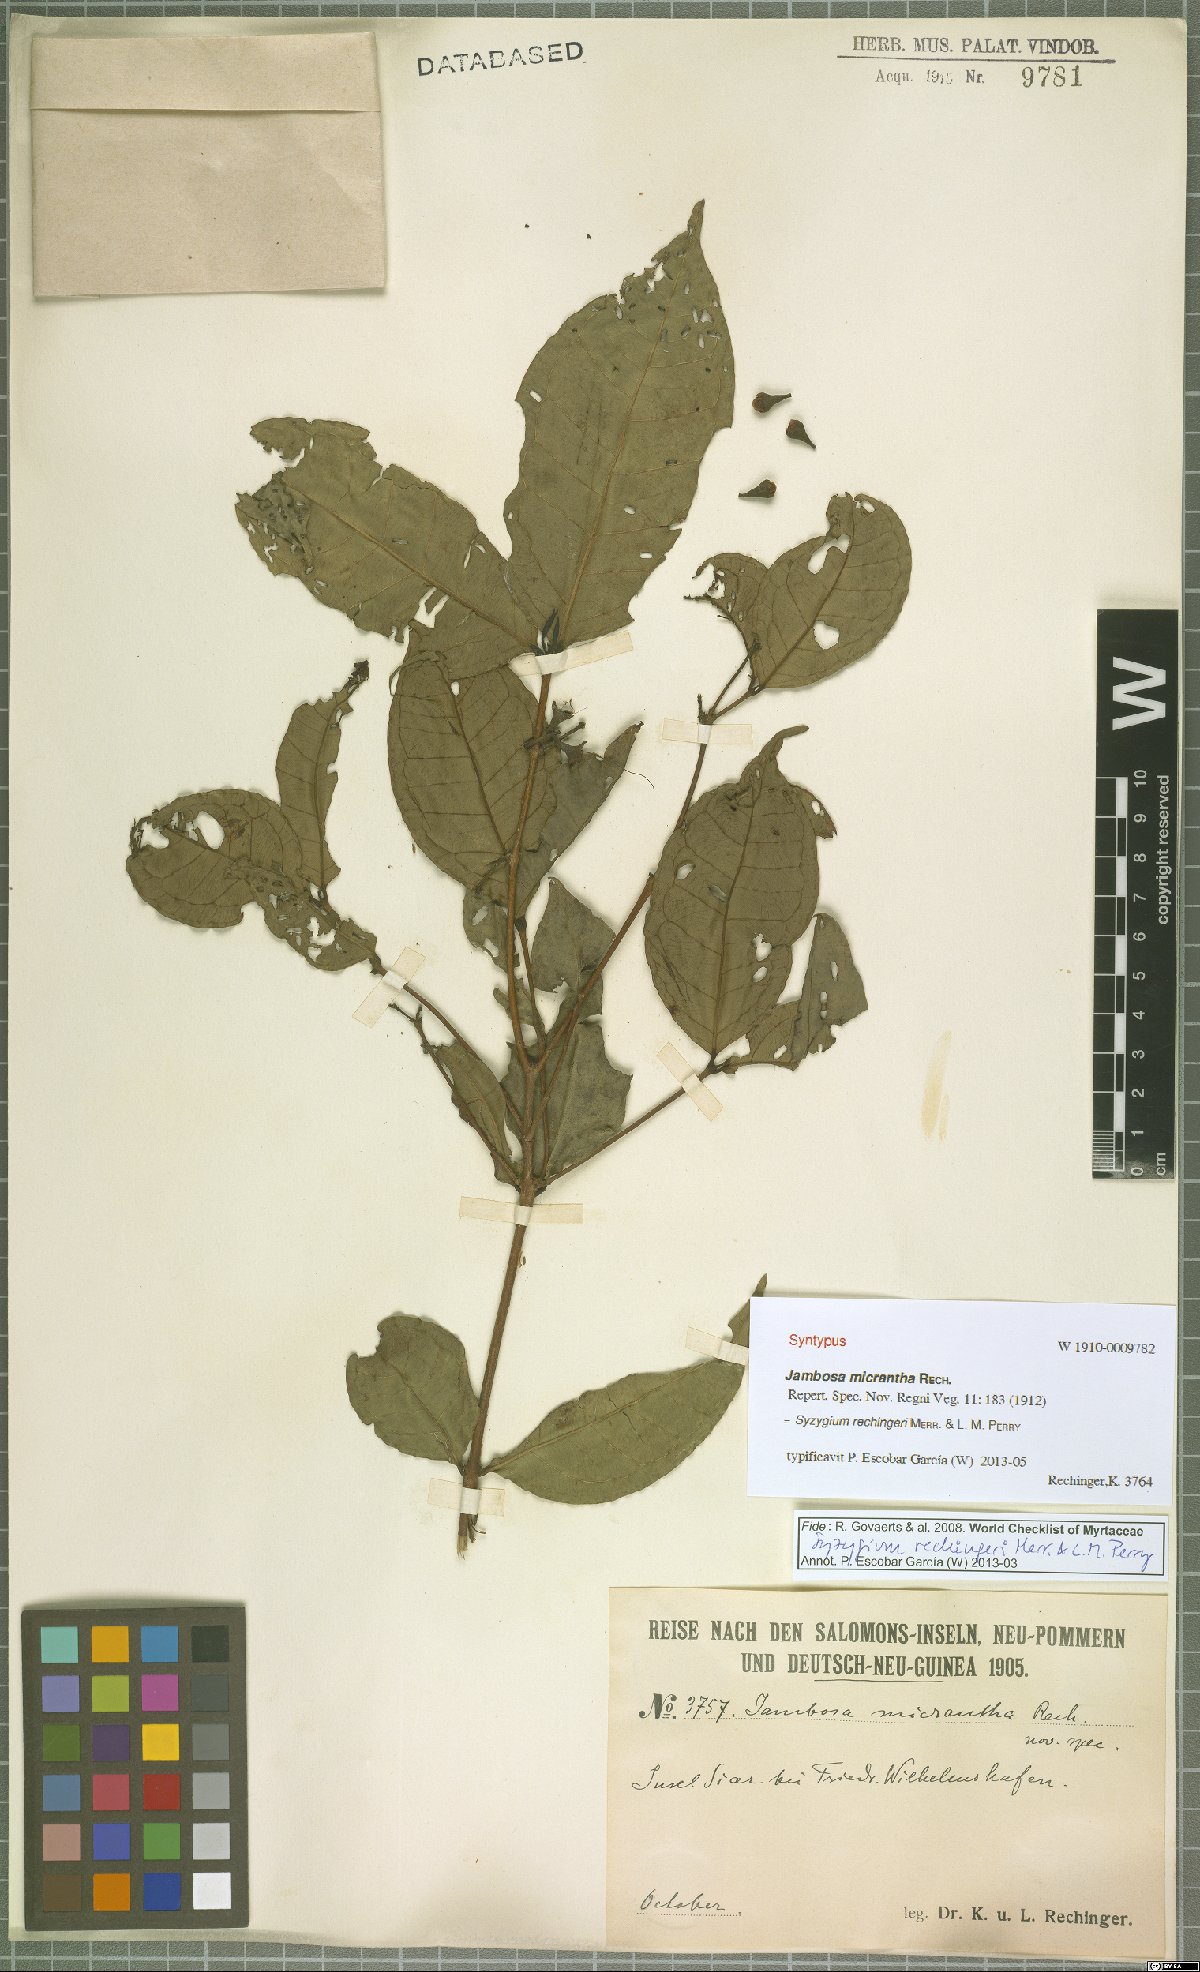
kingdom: Plantae
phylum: Tracheophyta
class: Magnoliopsida
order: Myrtales
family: Myrtaceae
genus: Syzygium
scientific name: Syzygium rechingeri
